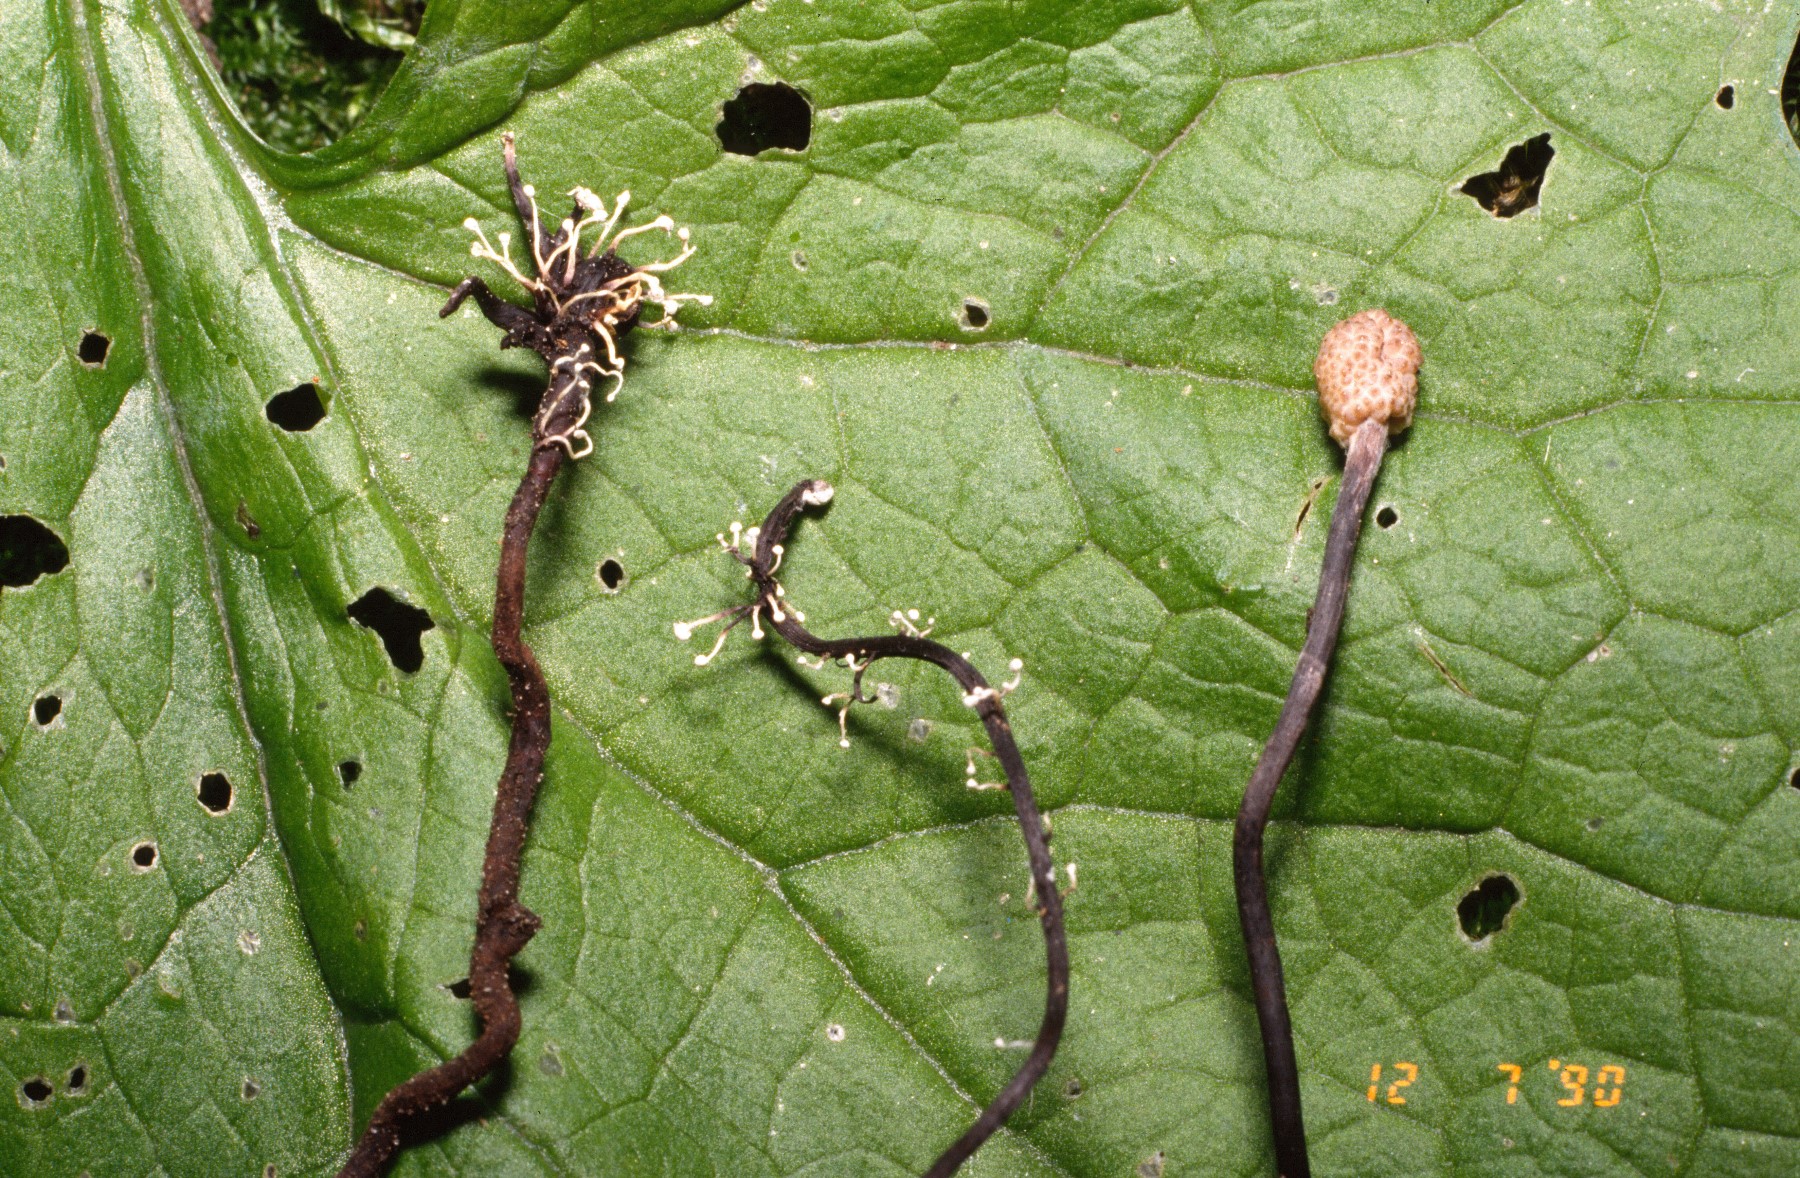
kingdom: Fungi
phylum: Ascomycota
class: Sordariomycetes
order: Hypocreales
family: Ophiocordycipitaceae
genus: Ophiocordyceps
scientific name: Ophiocordyceps entomorrhiza
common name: grå snyltekølle
